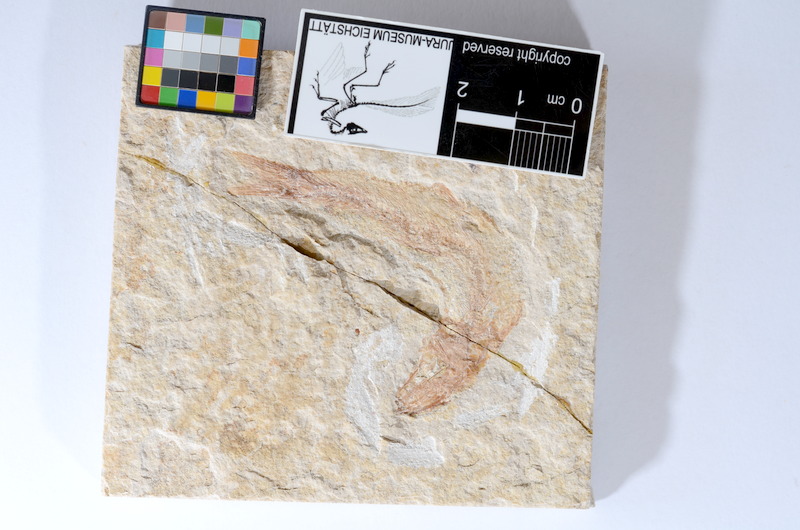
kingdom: Animalia
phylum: Chordata
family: Ascalaboidae
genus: Tharsis
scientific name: Tharsis dubius
